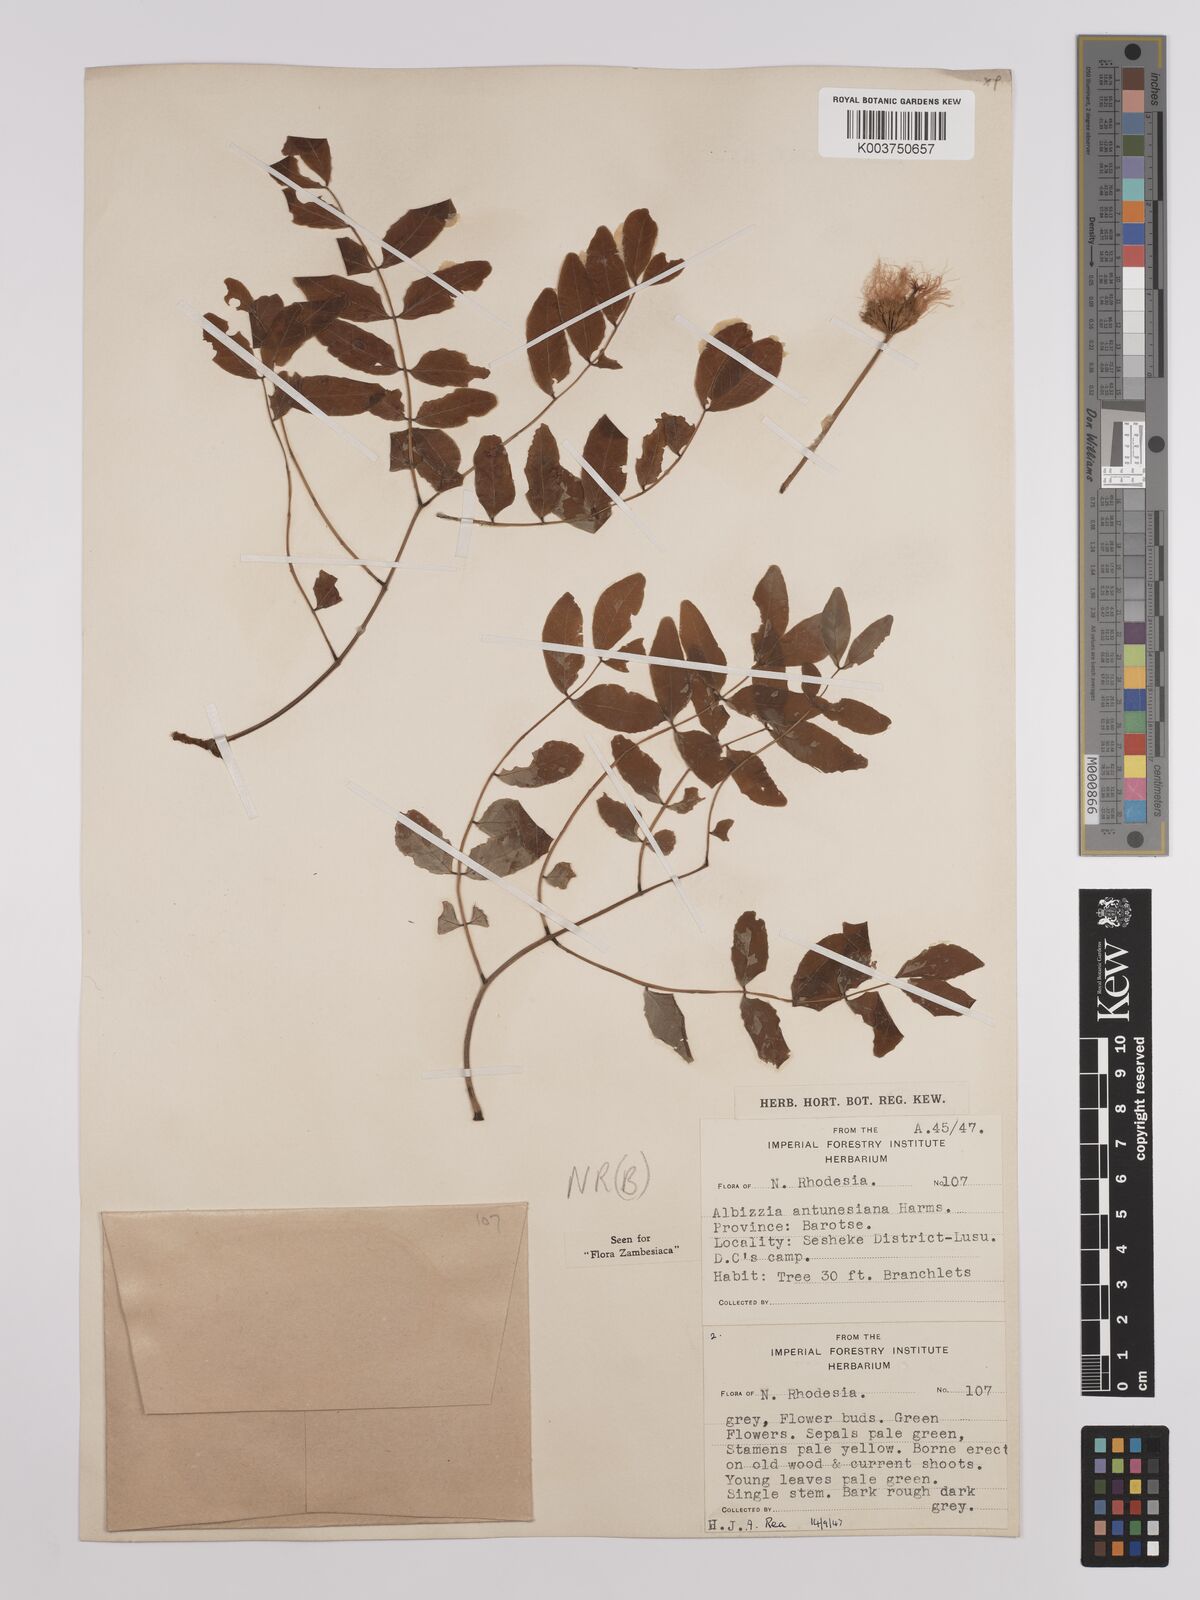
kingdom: Plantae
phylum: Tracheophyta
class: Magnoliopsida
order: Fabales
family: Fabaceae
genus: Albizia
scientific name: Albizia antunesiana
